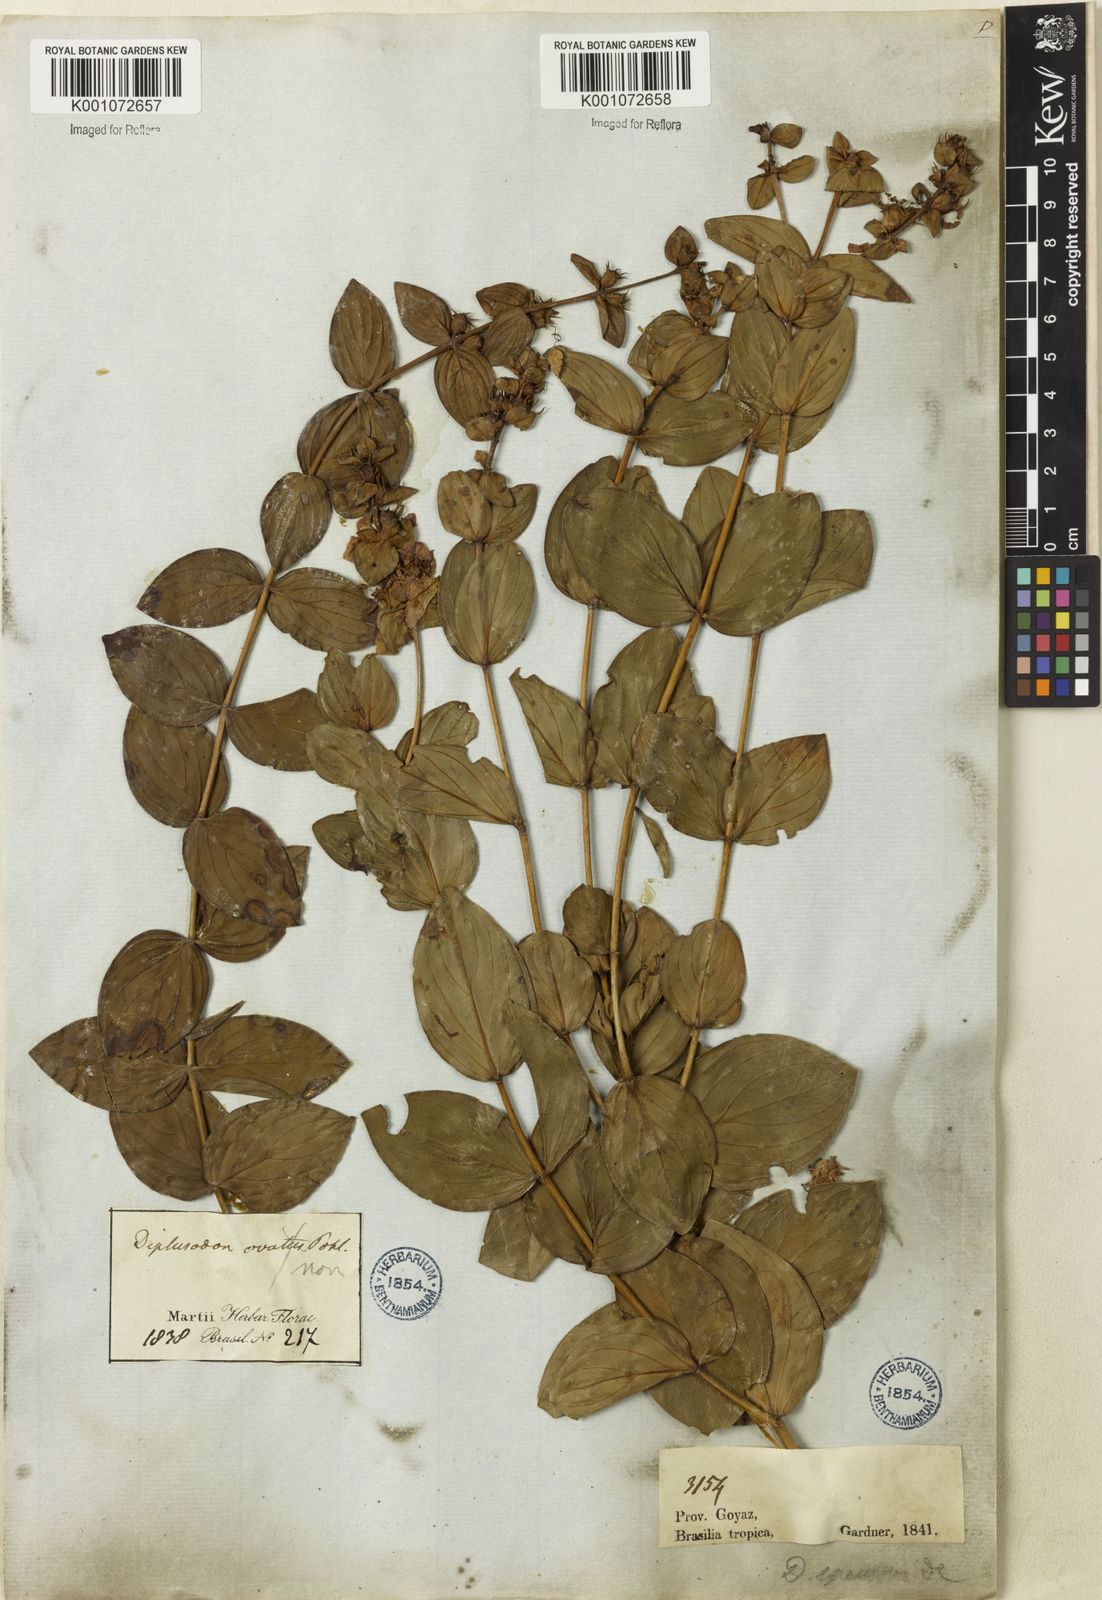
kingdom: Plantae
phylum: Tracheophyta
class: Magnoliopsida
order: Myrtales
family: Lythraceae
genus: Diplusodon
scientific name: Diplusodon speciosus
